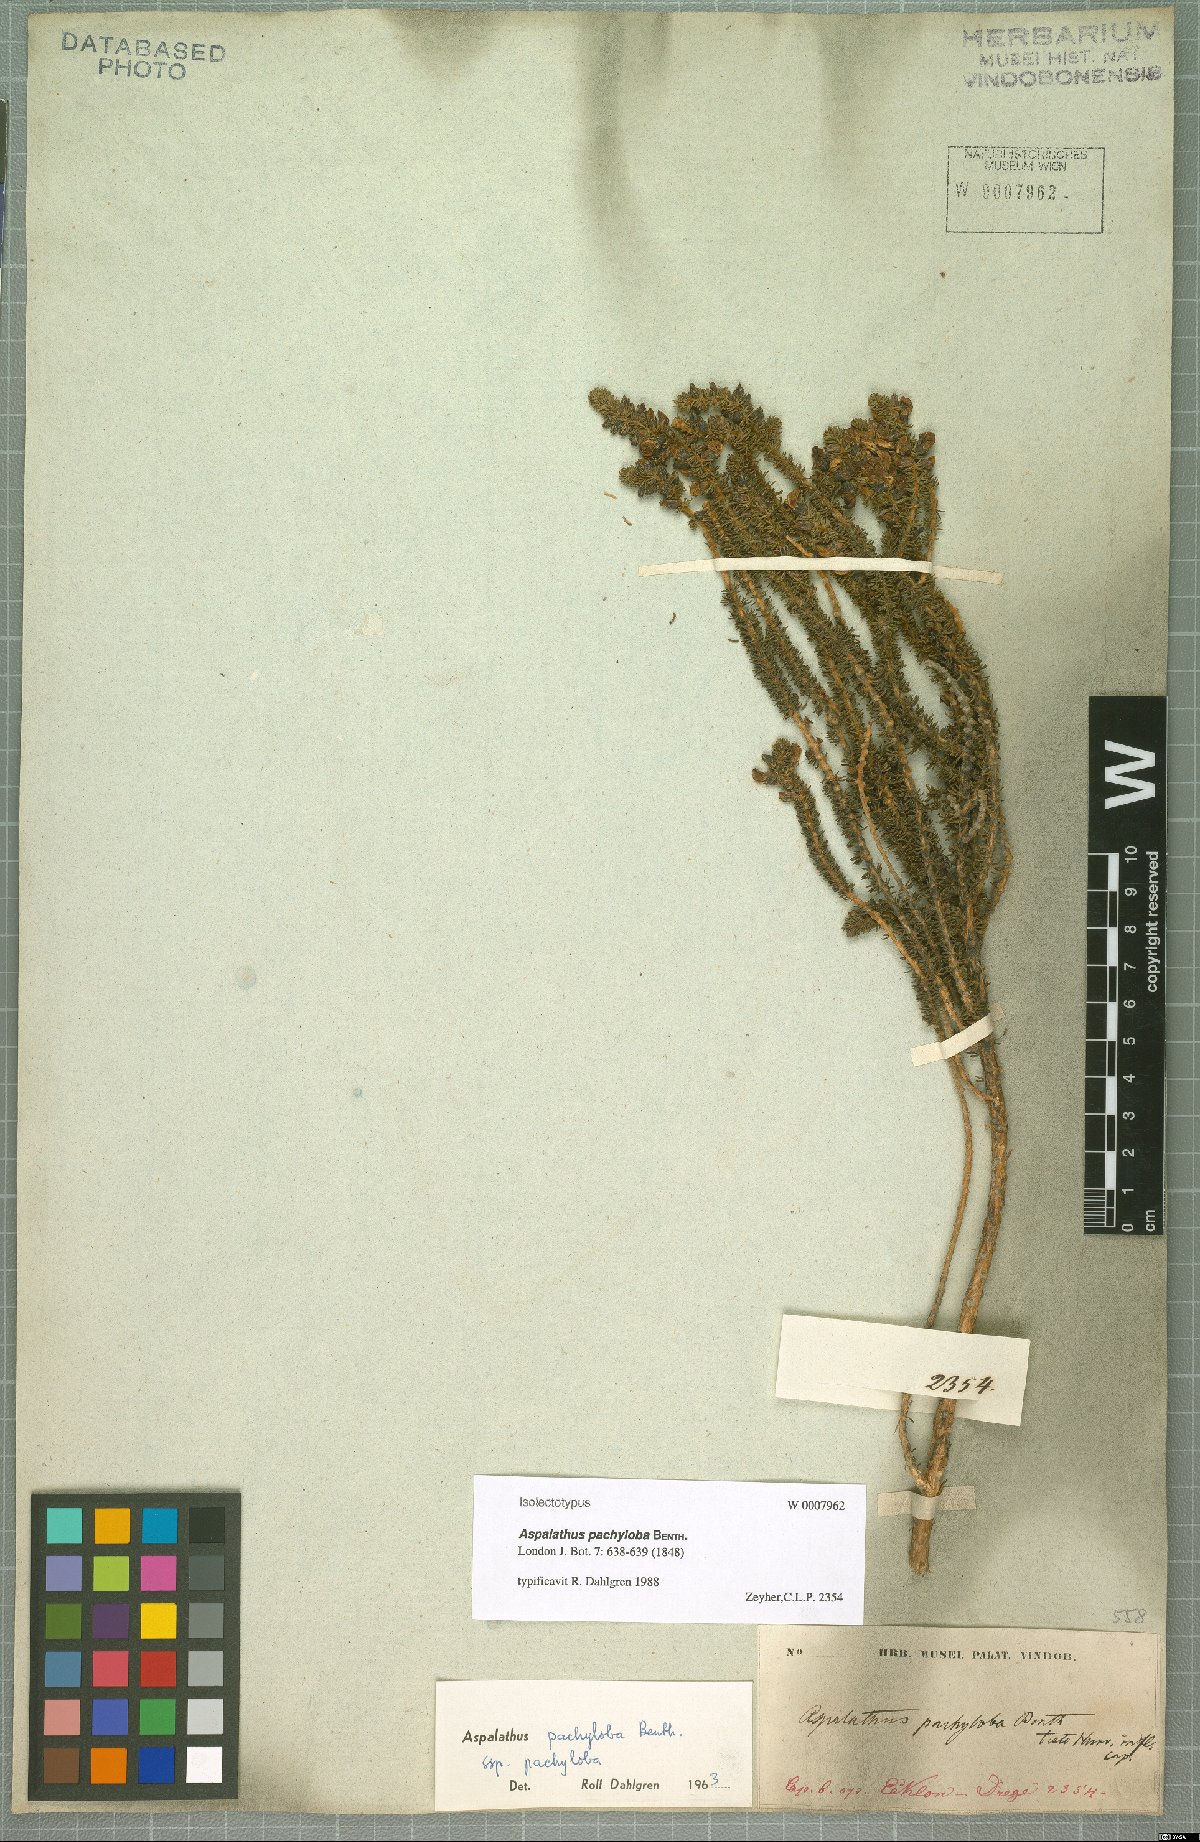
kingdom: Plantae
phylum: Tracheophyta
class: Magnoliopsida
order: Fabales
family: Fabaceae
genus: Aspalathus
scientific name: Aspalathus pachyloba
